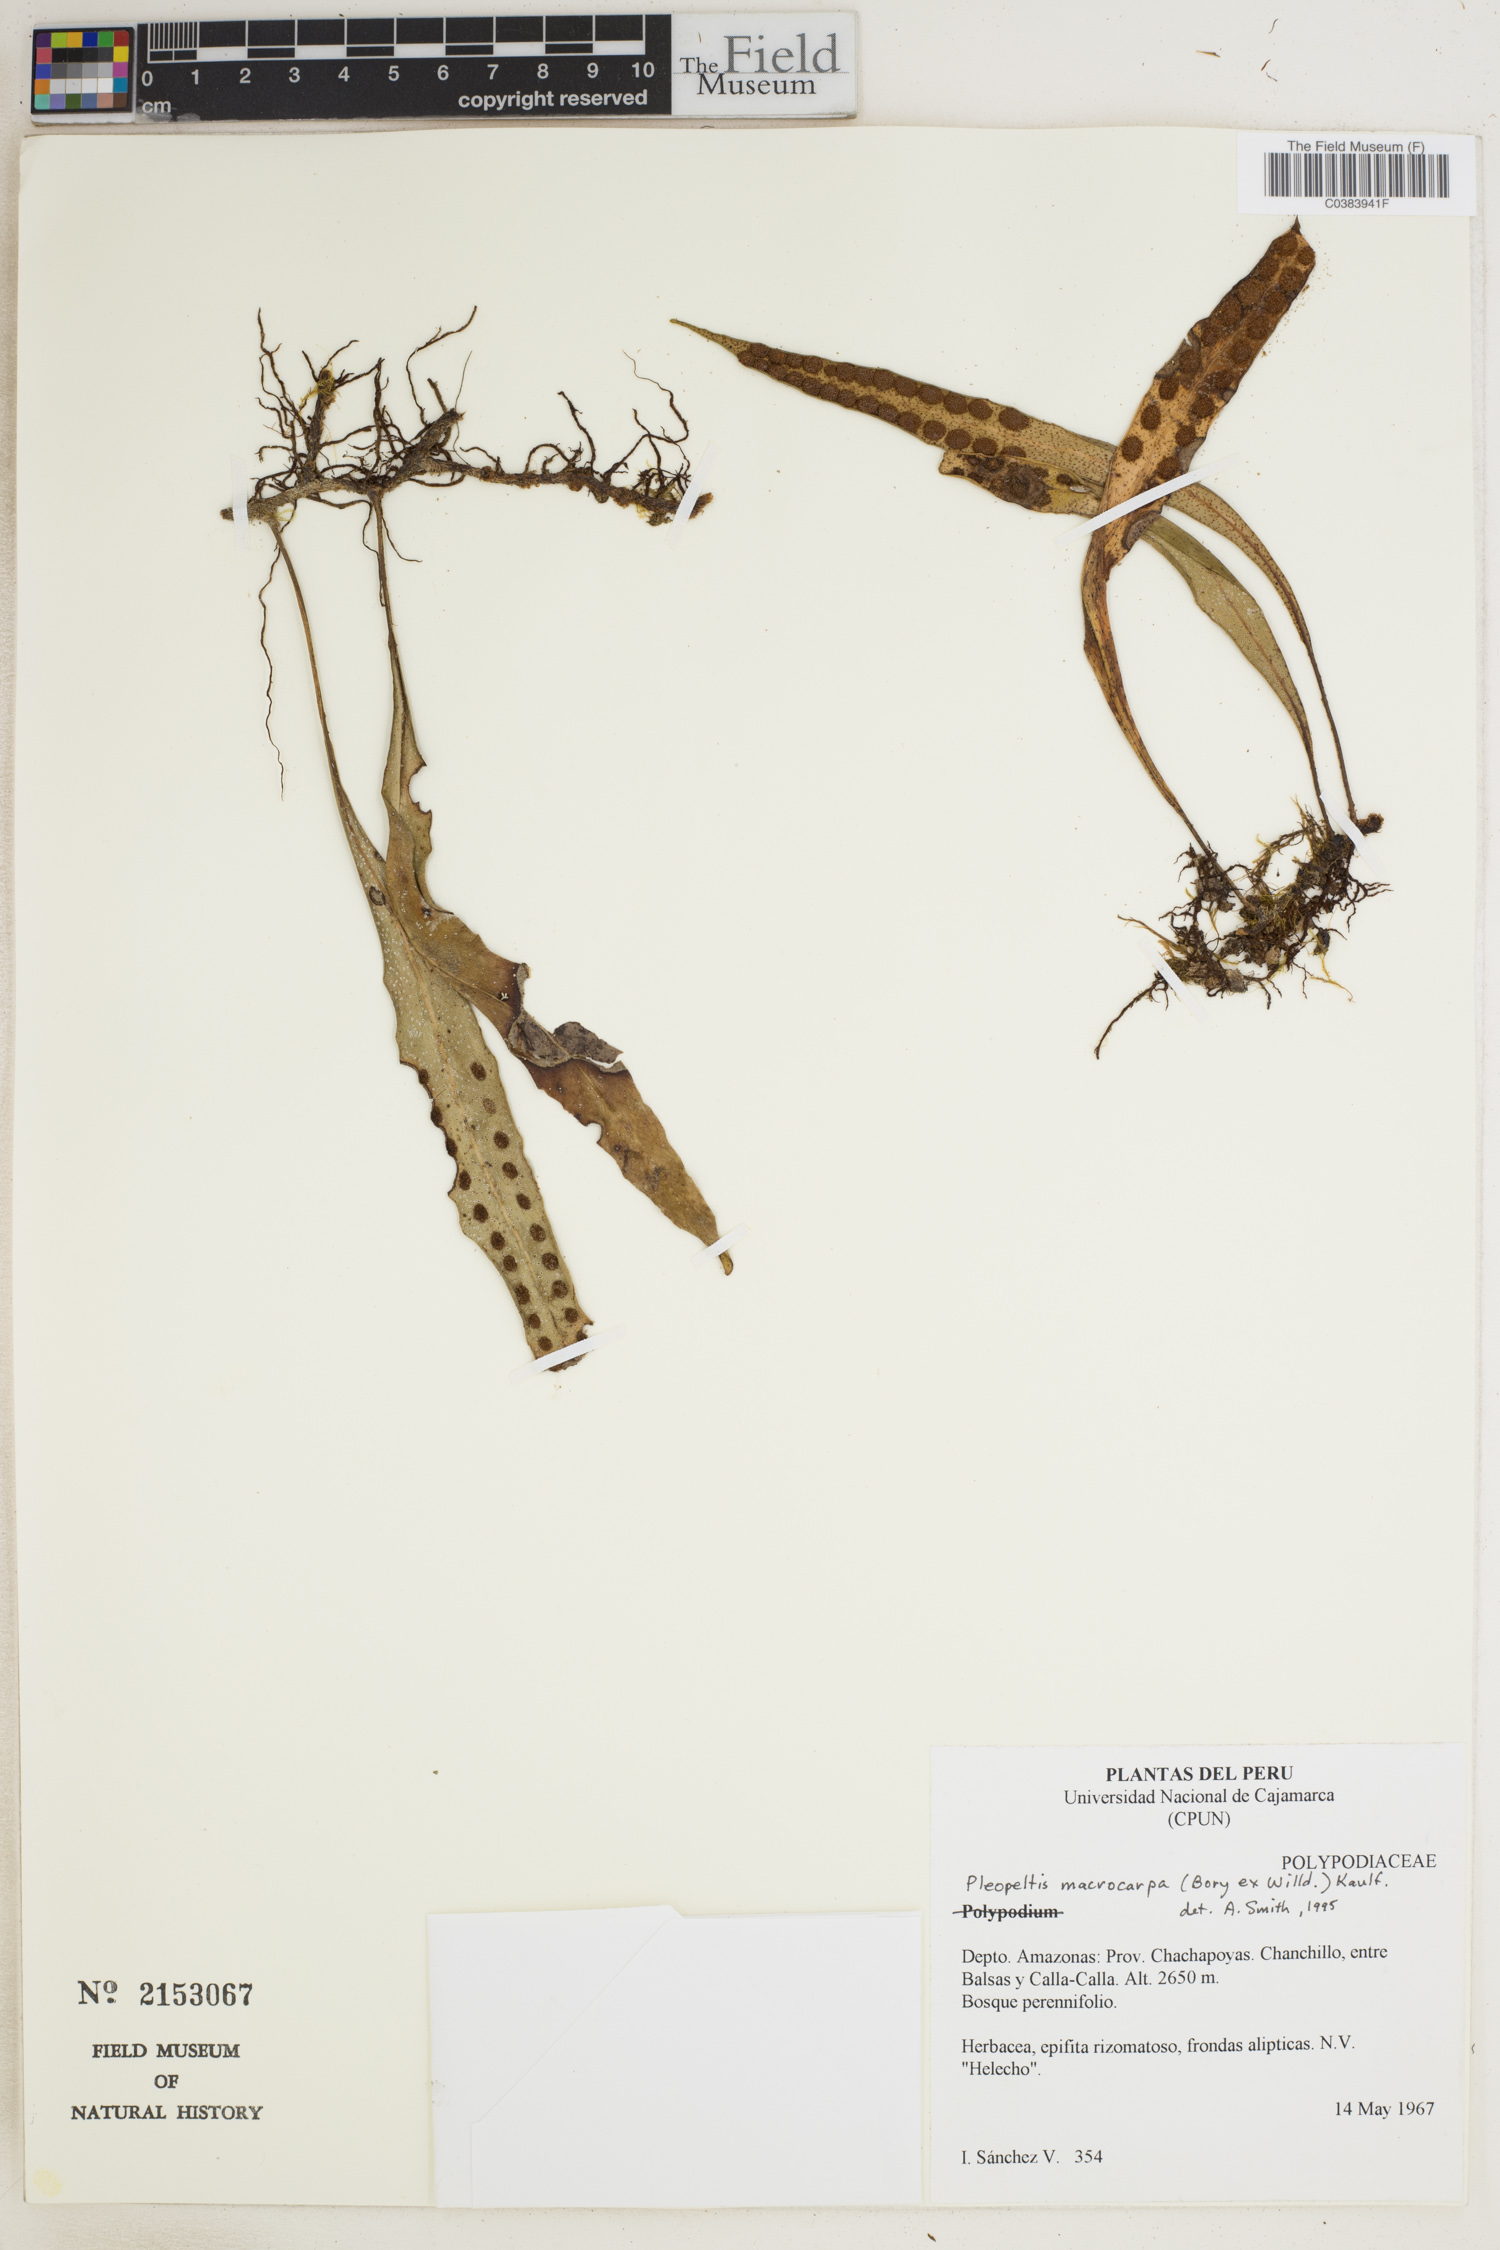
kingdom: Plantae
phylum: Tracheophyta
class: Polypodiopsida
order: Polypodiales
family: Polypodiaceae
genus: Pleopeltis
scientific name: Pleopeltis macrocarpa
